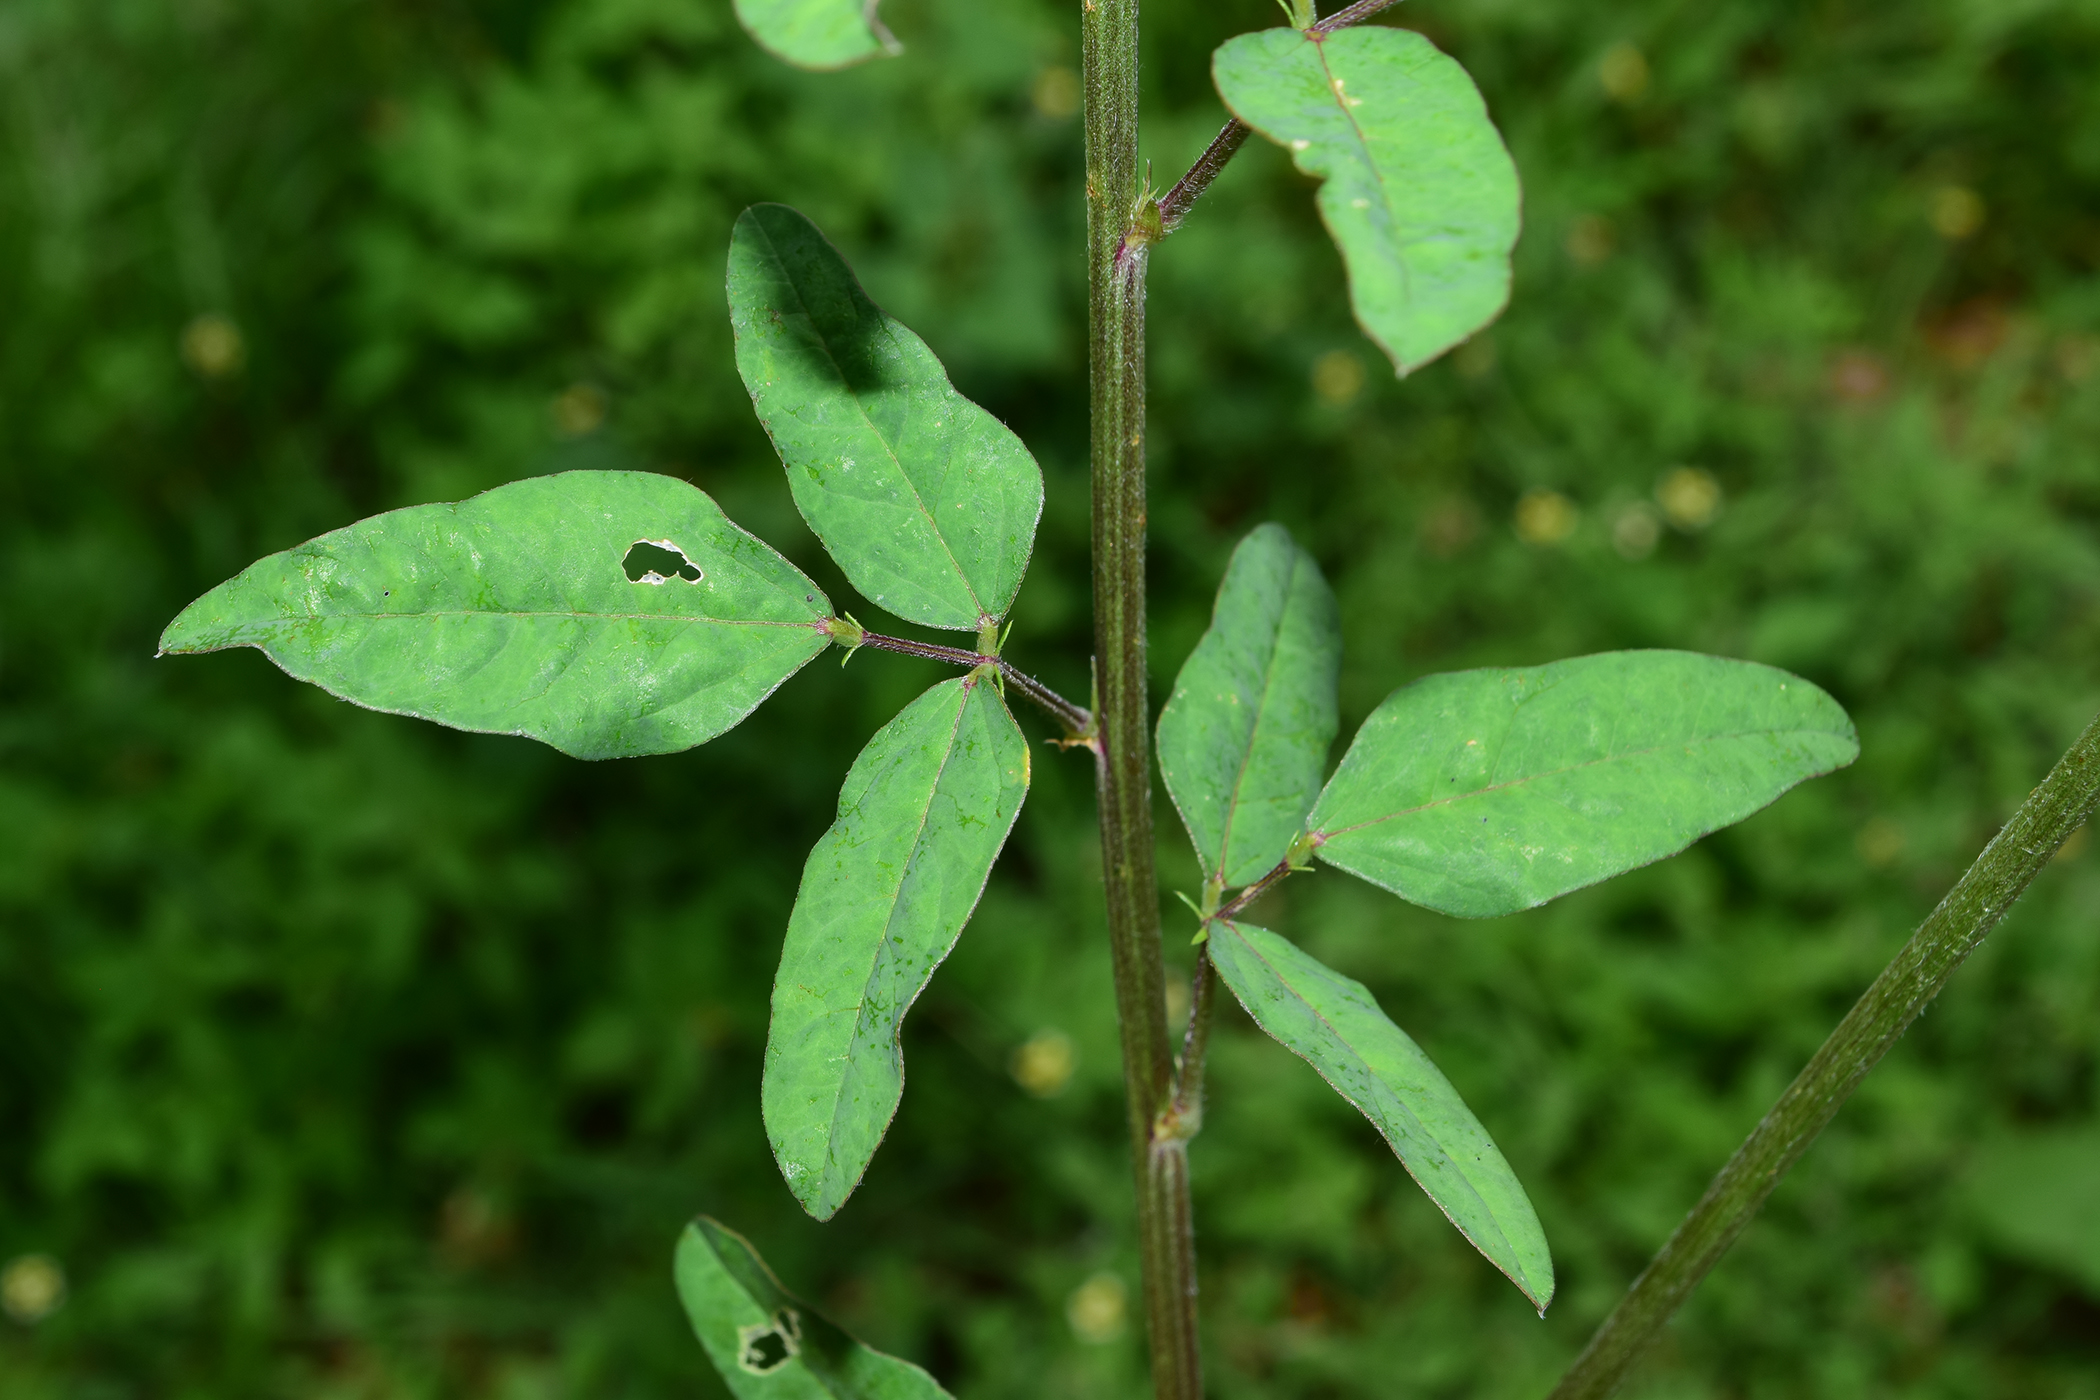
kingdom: Plantae
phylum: Tracheophyta
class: Magnoliopsida
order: Fabales
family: Fabaceae
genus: Macroptilium
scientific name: Macroptilium lathyroides
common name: Wild bushbean
